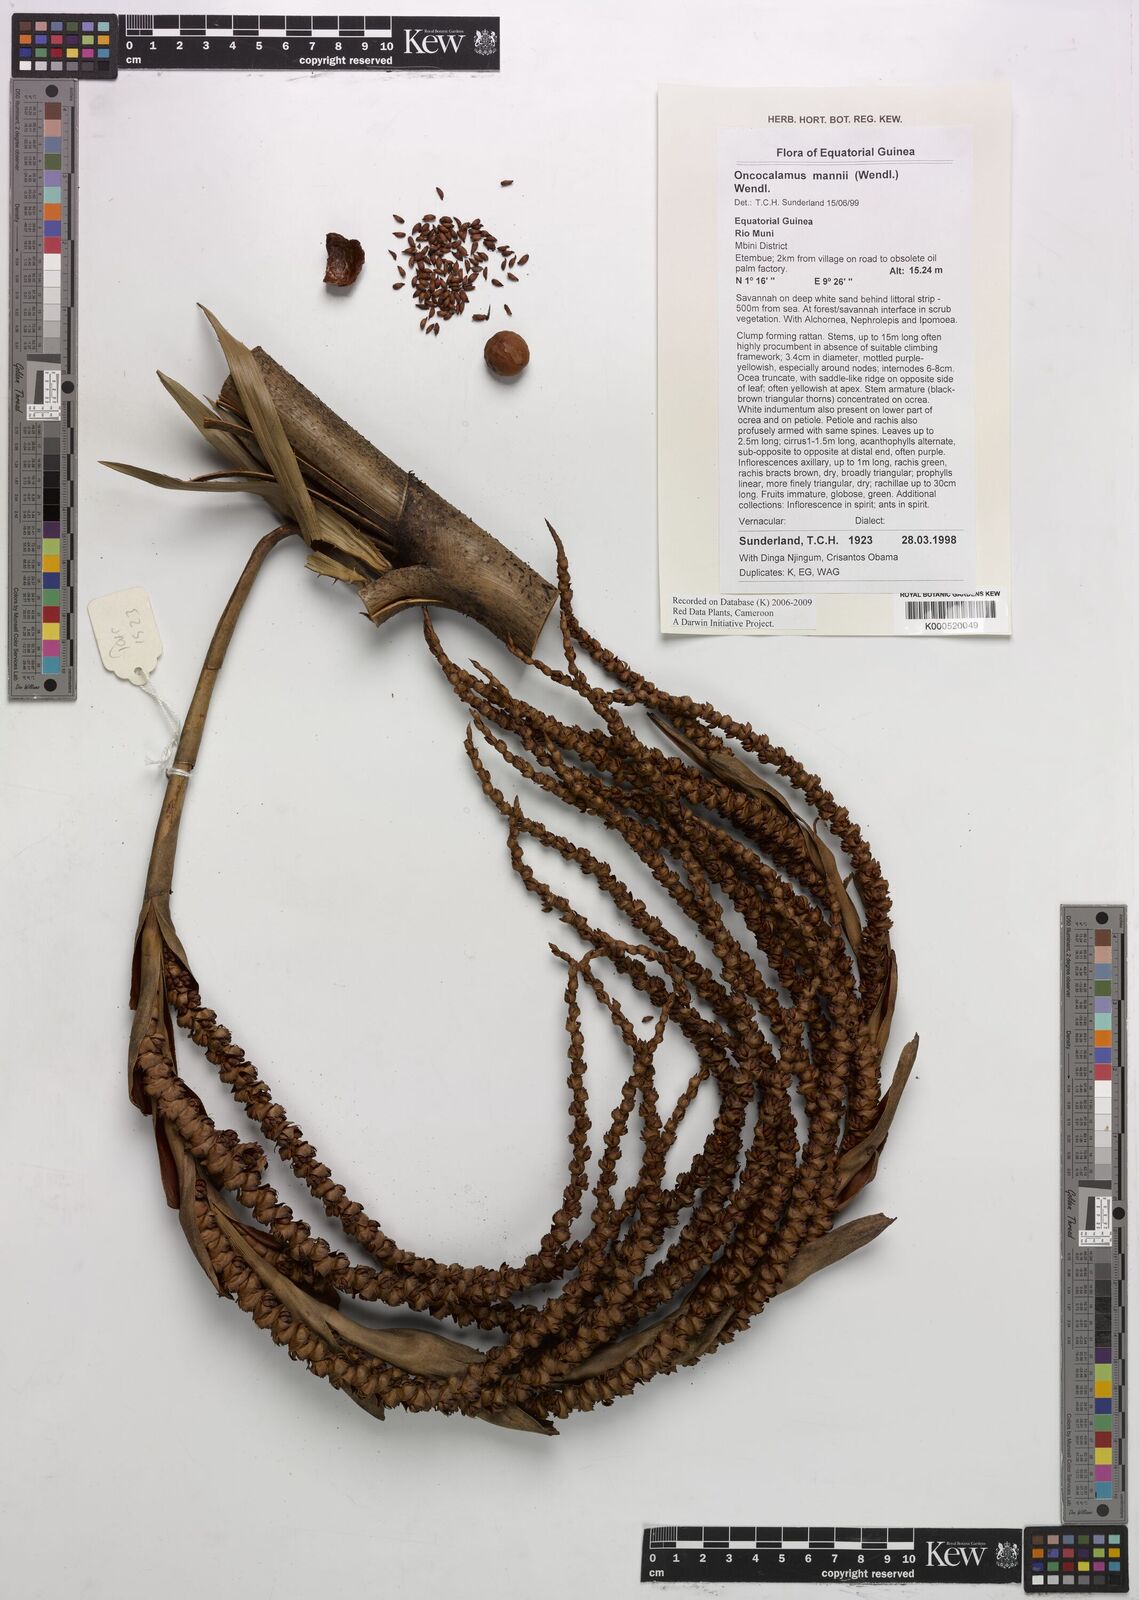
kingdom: Plantae
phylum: Tracheophyta
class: Liliopsida
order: Arecales
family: Arecaceae
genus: Oncocalamus
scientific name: Oncocalamus mannii
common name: Rattan
